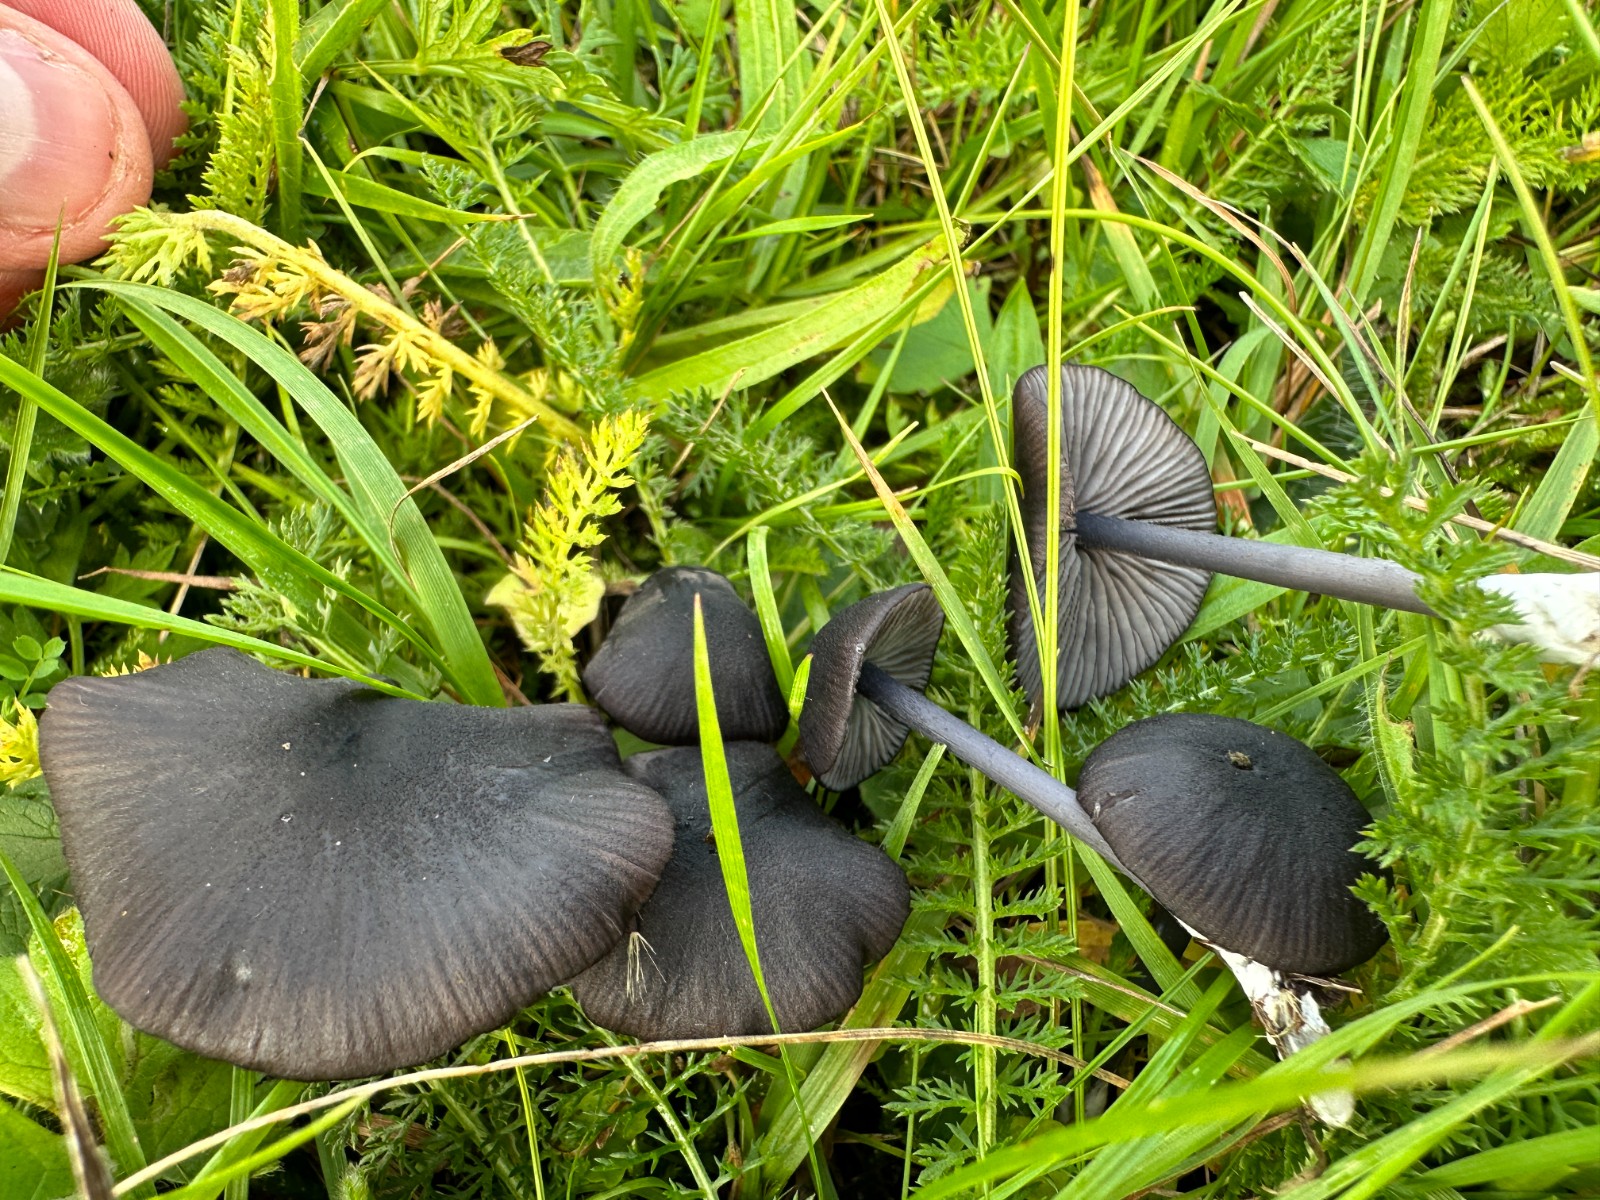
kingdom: Fungi
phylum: Basidiomycota
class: Agaricomycetes
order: Agaricales
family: Entolomataceae
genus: Entoloma
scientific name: Entoloma serrulatum
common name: savbladet rødblad
